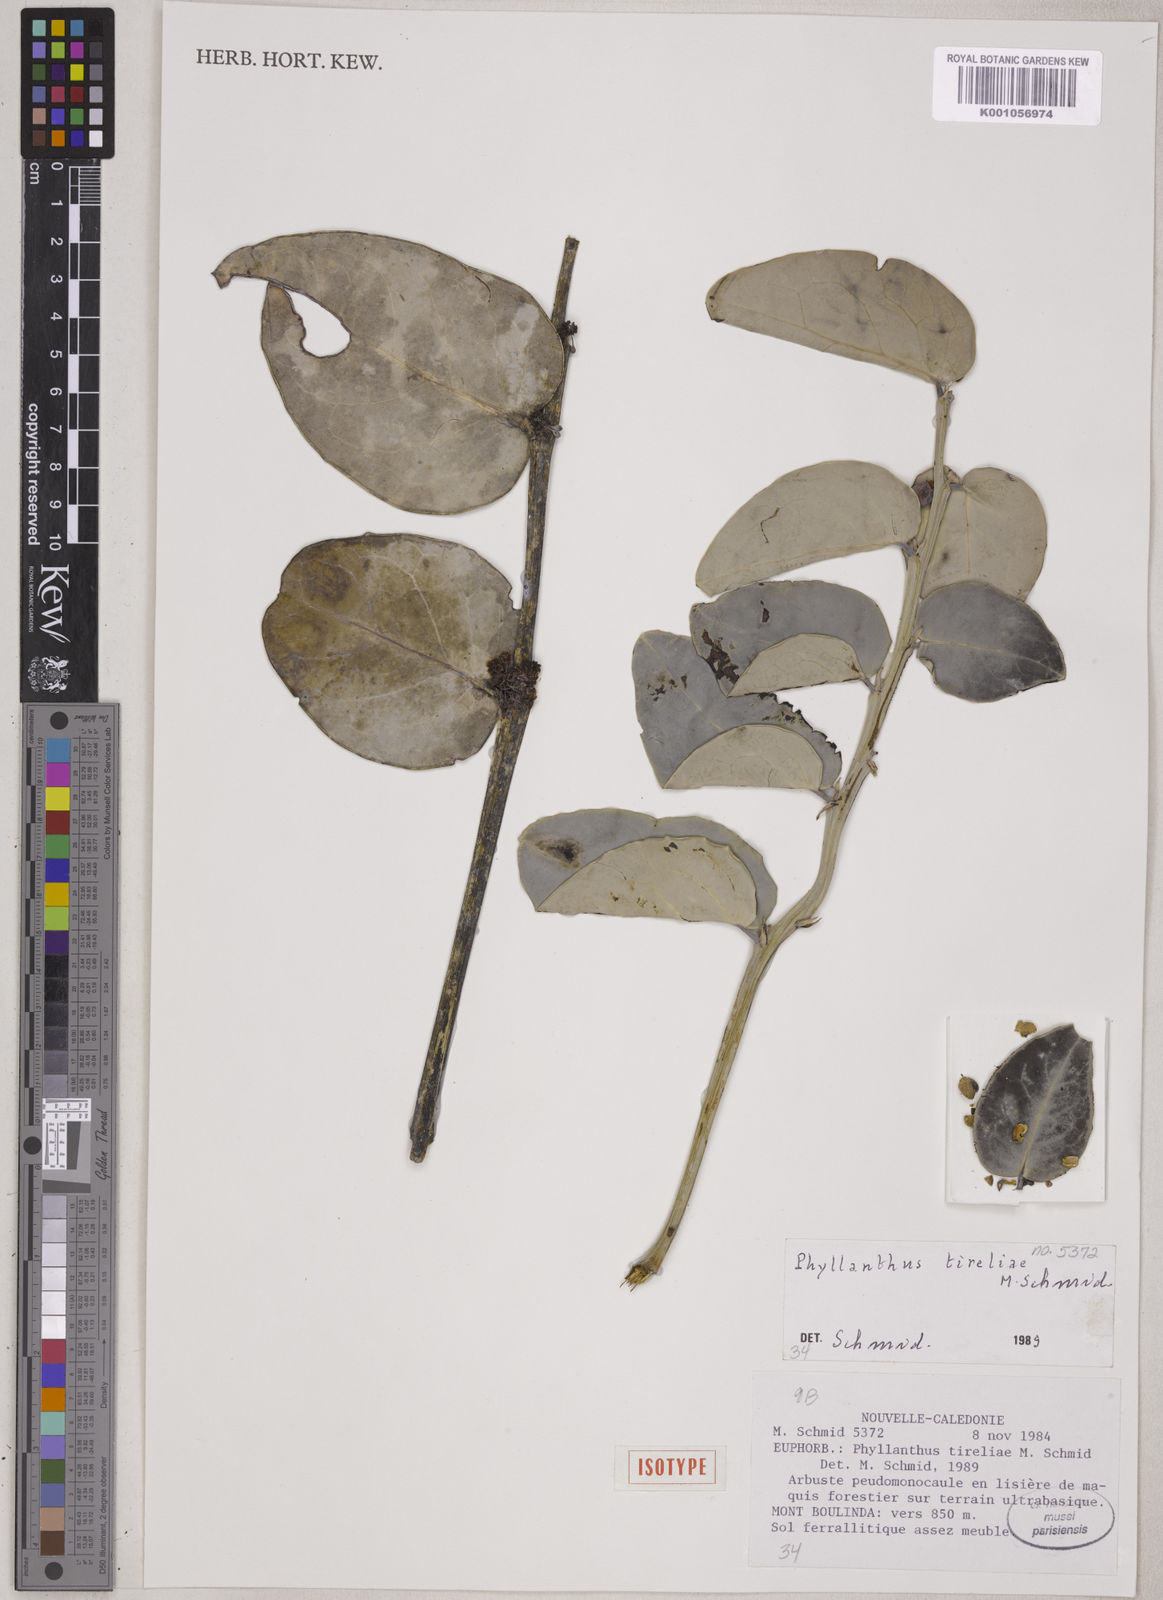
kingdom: Plantae
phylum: Tracheophyta
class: Magnoliopsida
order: Malpighiales
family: Phyllanthaceae
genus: Phyllanthus
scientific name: Phyllanthus tireliae
